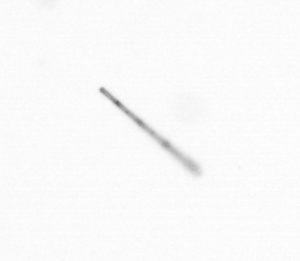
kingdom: Chromista
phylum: Ochrophyta
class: Bacillariophyceae
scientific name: Bacillariophyceae
